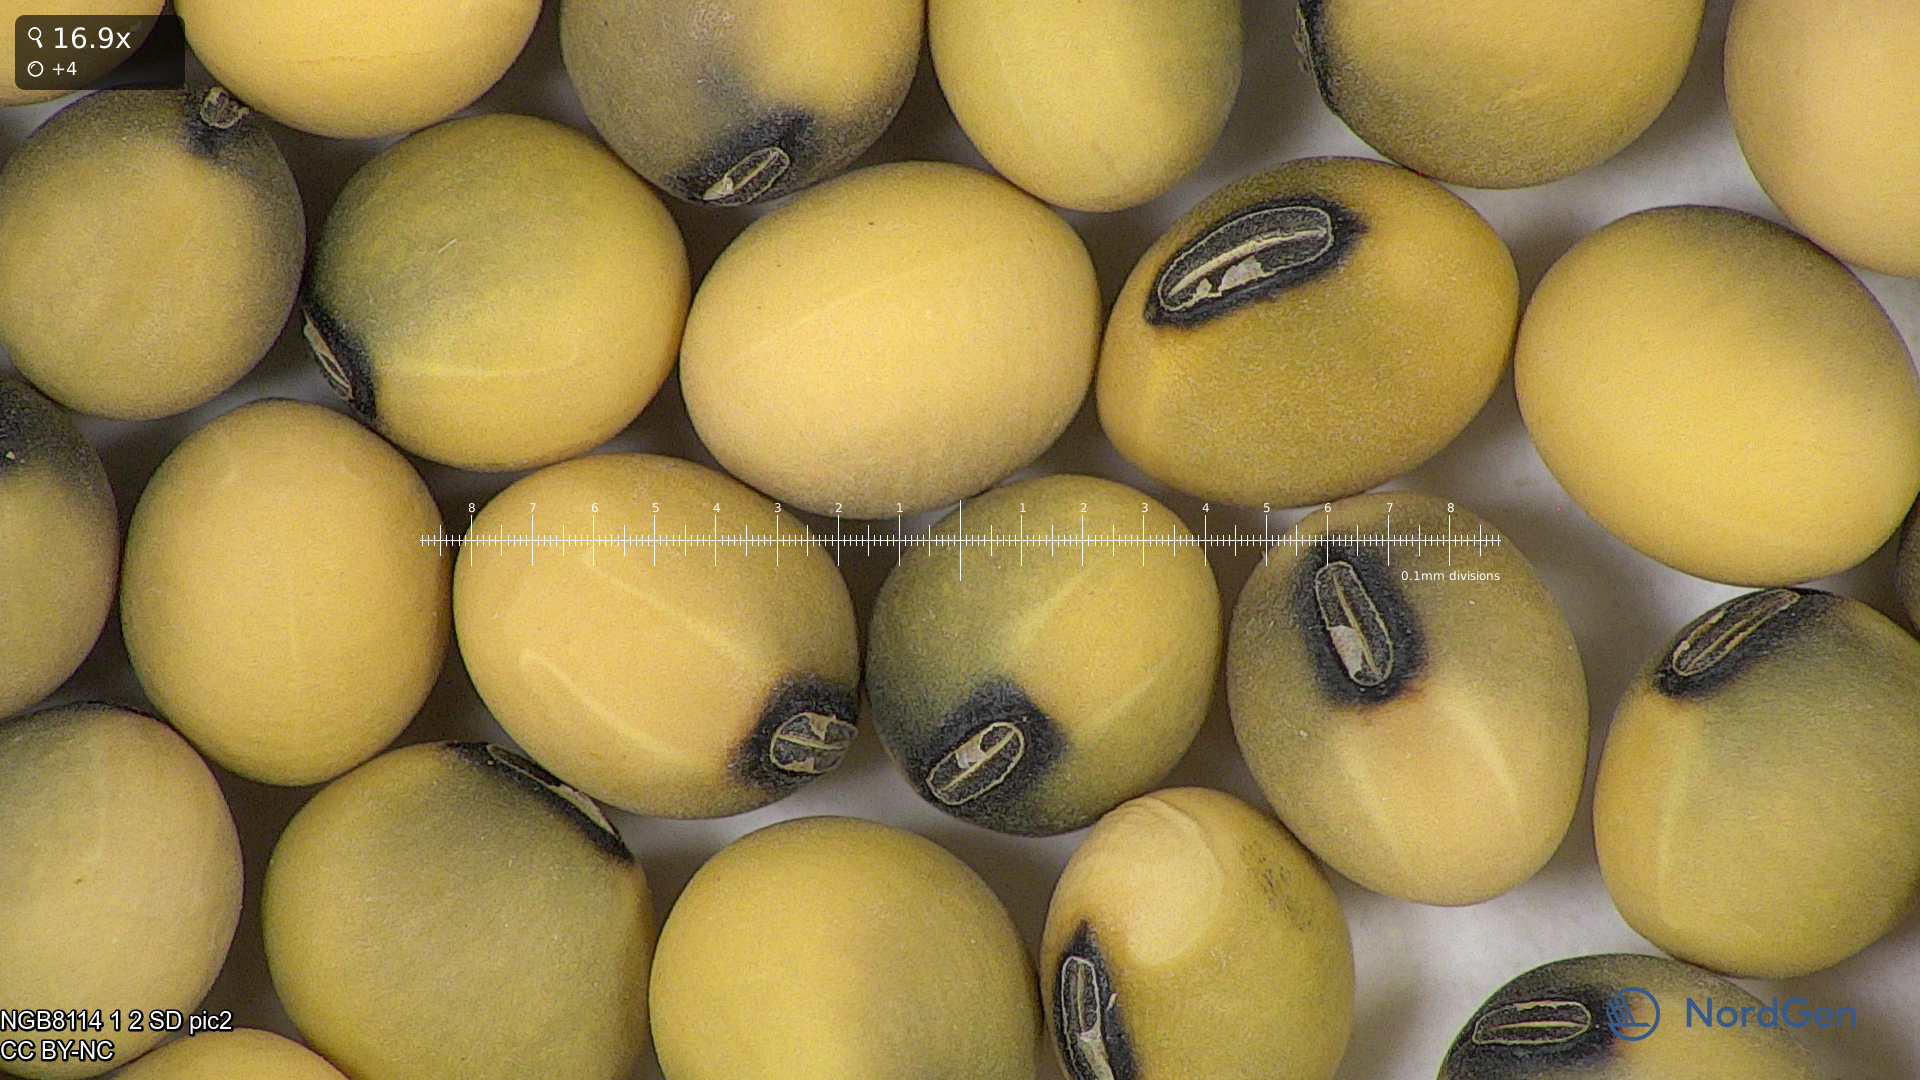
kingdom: Plantae
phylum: Tracheophyta
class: Magnoliopsida
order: Fabales
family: Fabaceae
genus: Glycine
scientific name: Glycine max
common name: Soya-bean
